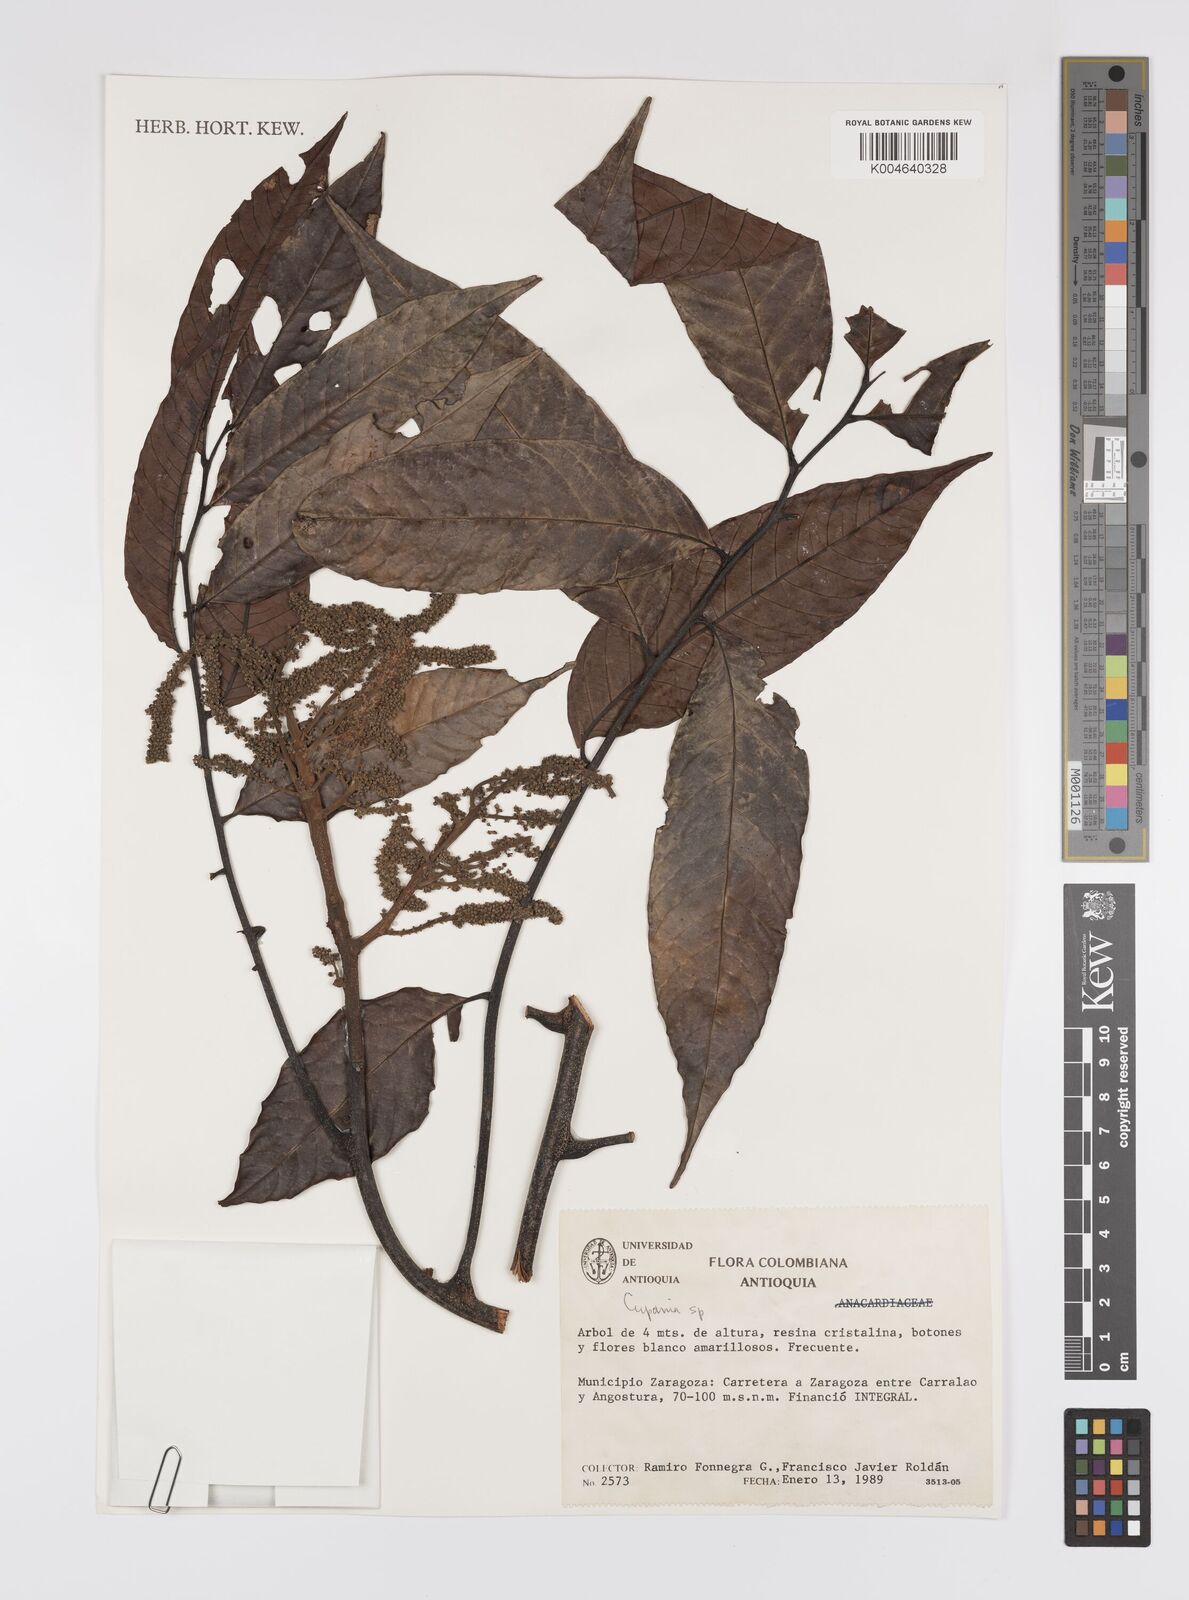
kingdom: Plantae
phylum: Tracheophyta
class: Magnoliopsida
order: Sapindales
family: Sapindaceae
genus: Cupania
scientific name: Cupania
